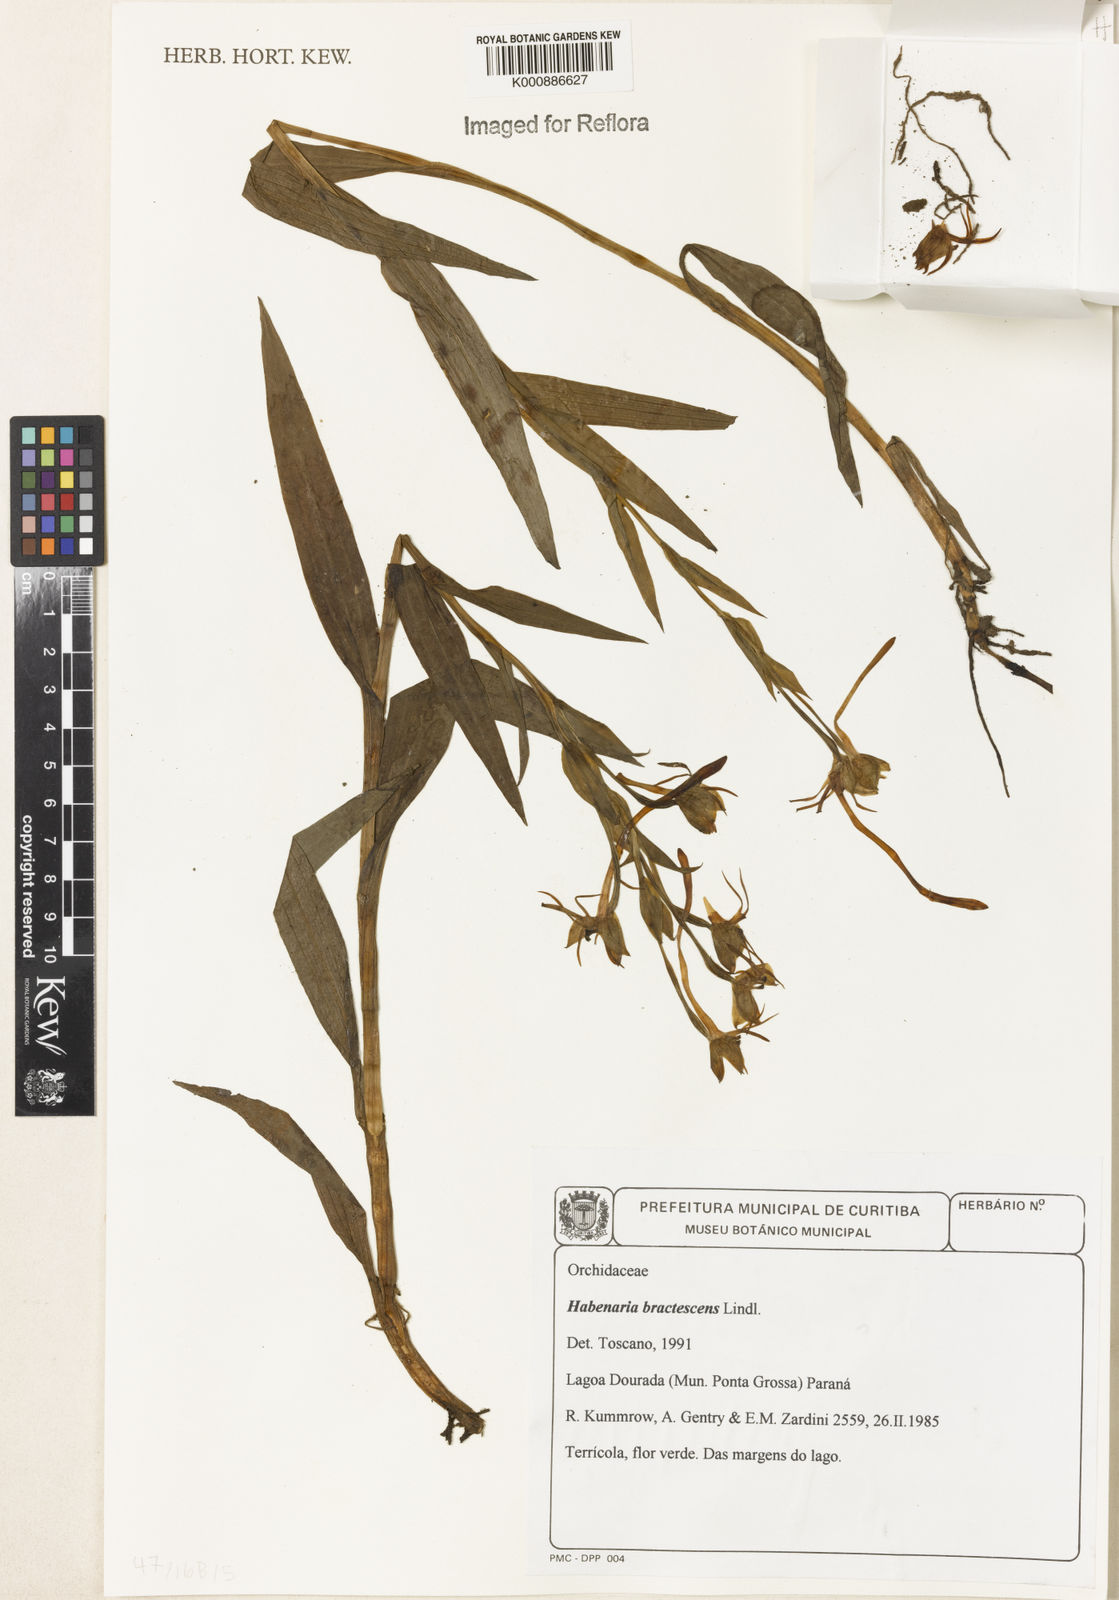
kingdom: Plantae
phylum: Tracheophyta
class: Liliopsida
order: Asparagales
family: Orchidaceae
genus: Habenaria
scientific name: Habenaria gourlieana
